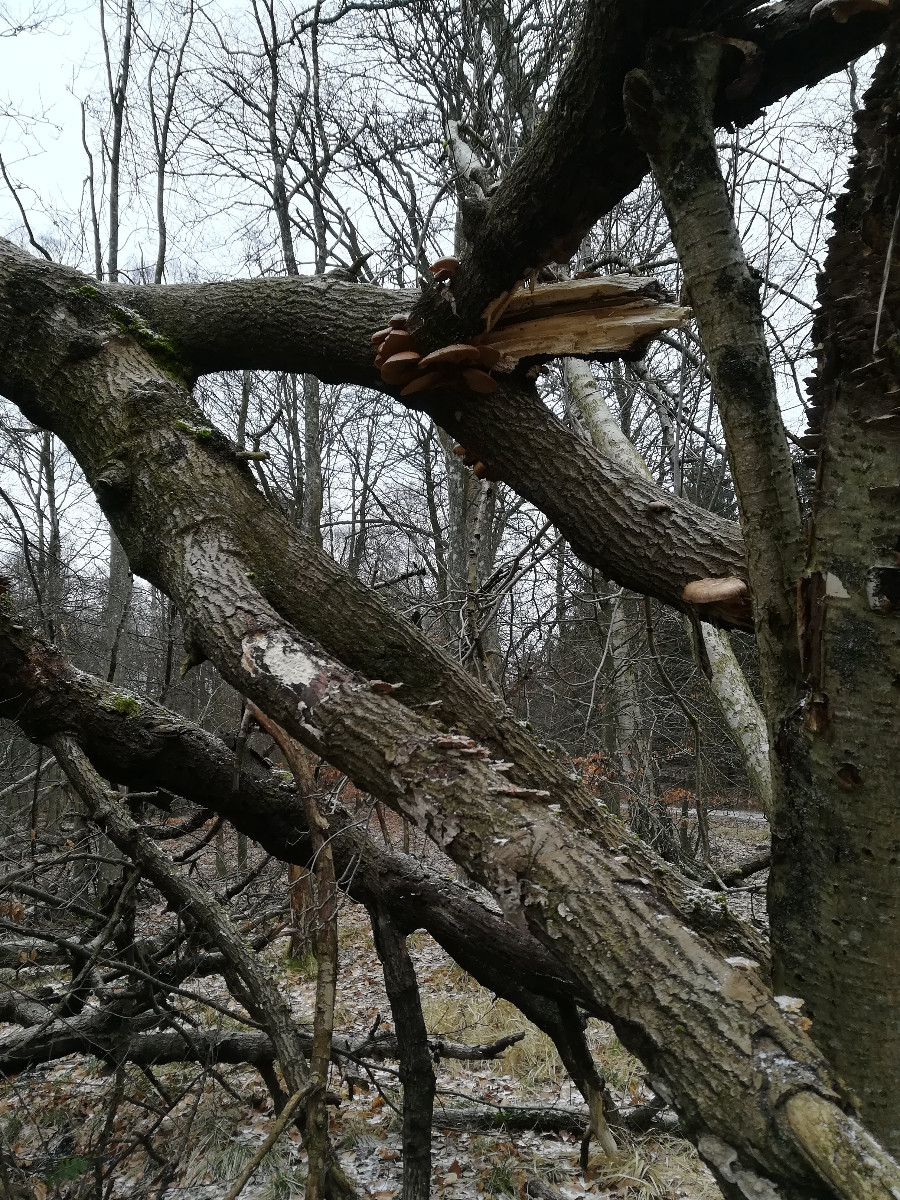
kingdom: Fungi
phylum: Basidiomycota
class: Agaricomycetes
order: Agaricales
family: Pleurotaceae
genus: Pleurotus
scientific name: Pleurotus ostreatus
